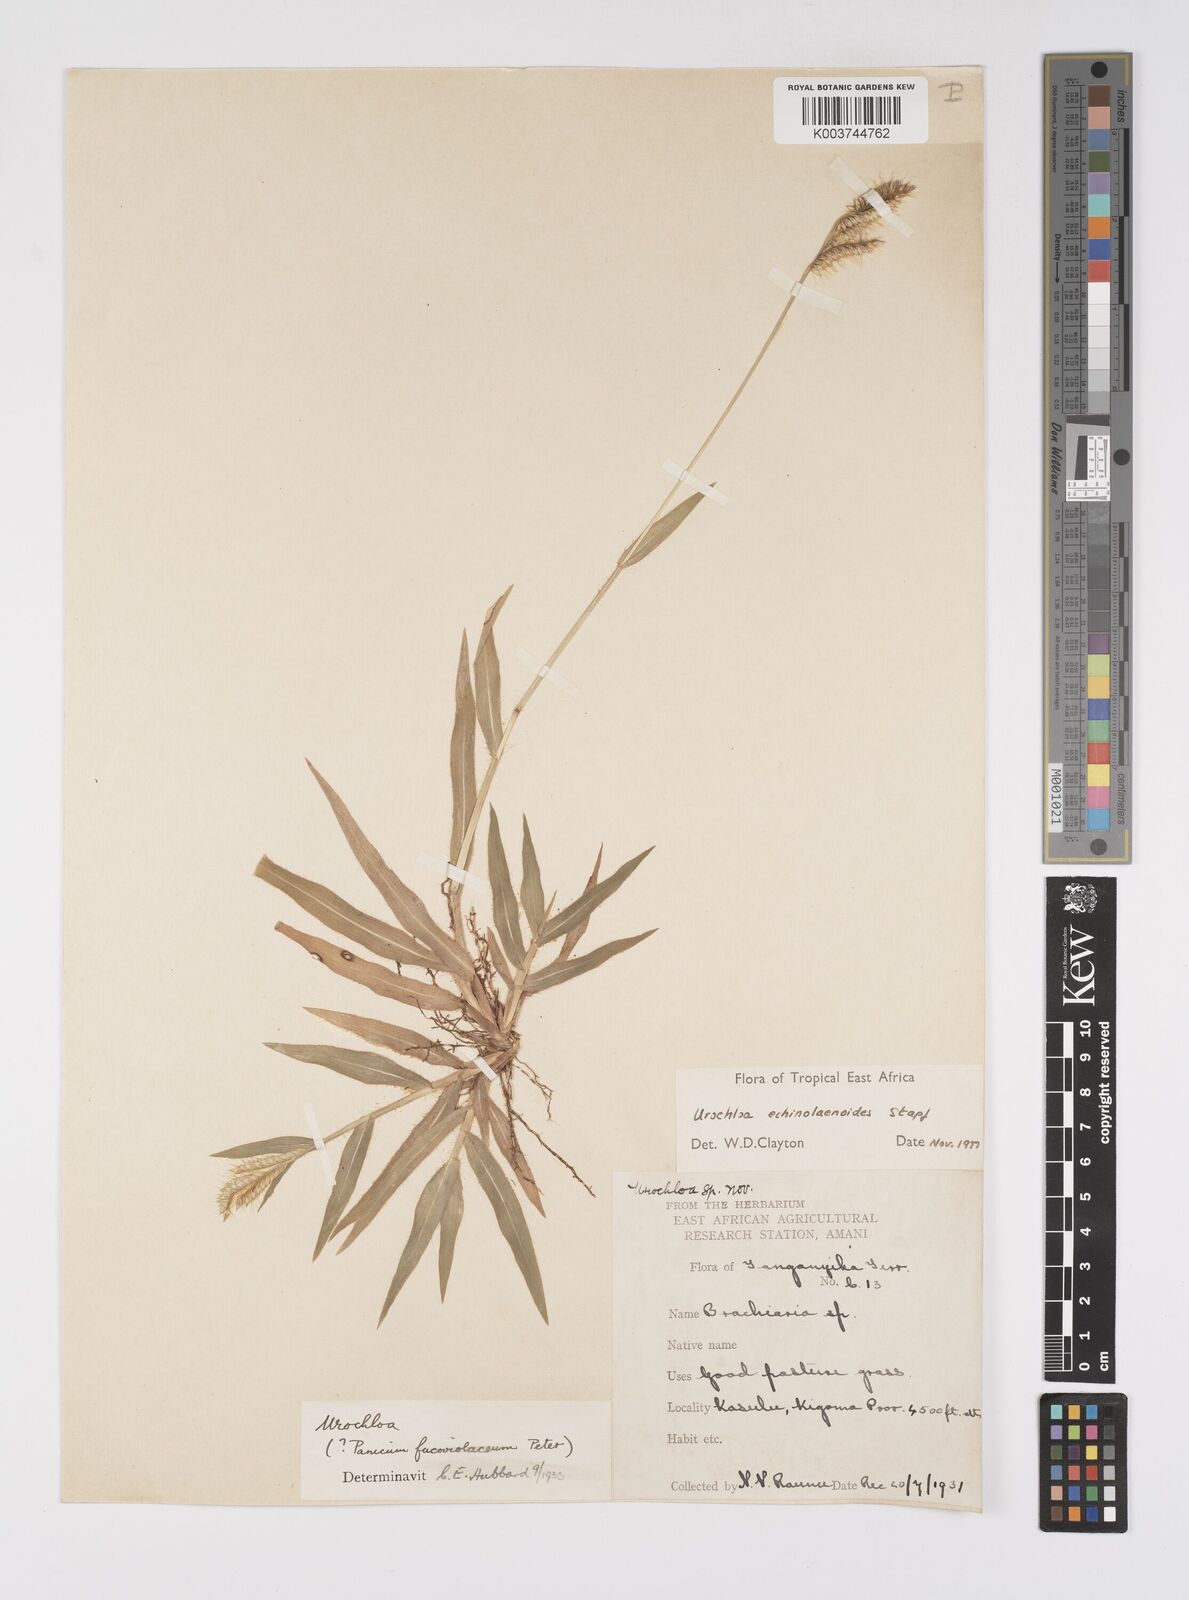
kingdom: Plantae
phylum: Tracheophyta
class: Liliopsida
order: Poales
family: Poaceae
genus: Urochloa
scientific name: Urochloa echinolaenoides
